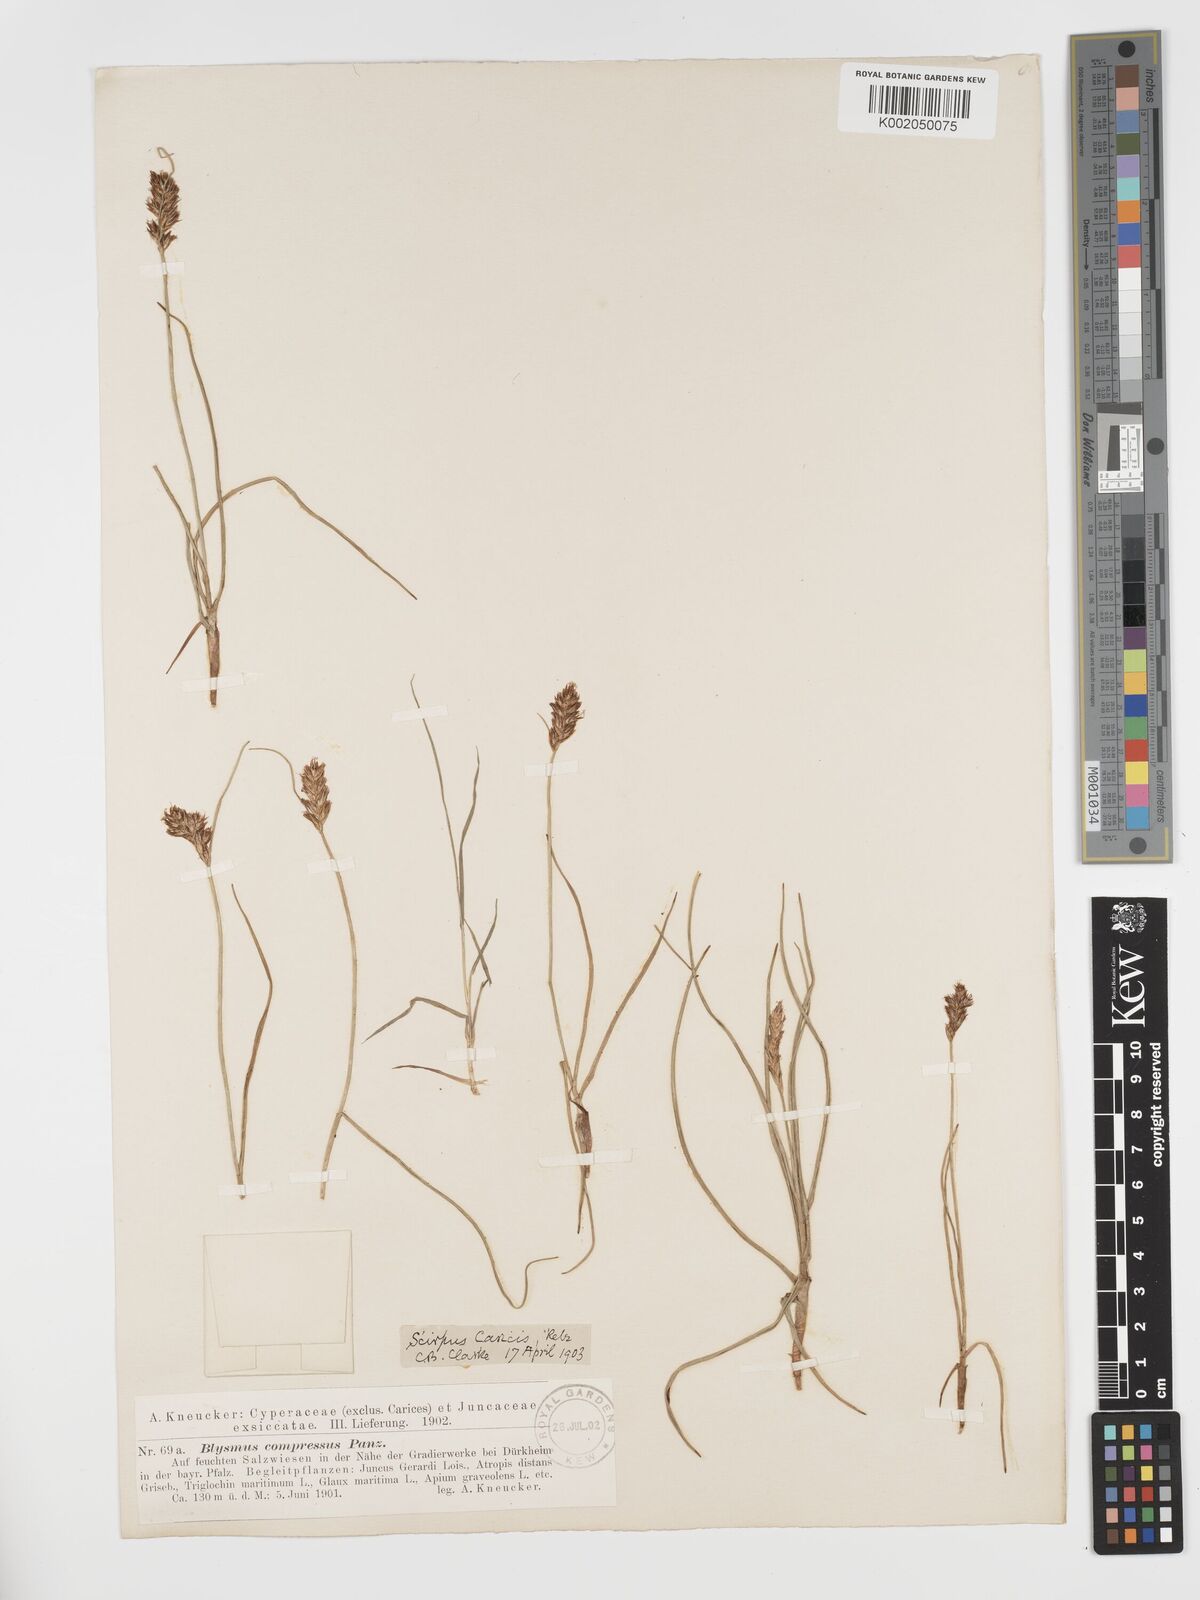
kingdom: Plantae
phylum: Tracheophyta
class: Liliopsida
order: Poales
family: Cyperaceae
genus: Blysmus
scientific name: Blysmus compressus
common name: Flat-sedge
